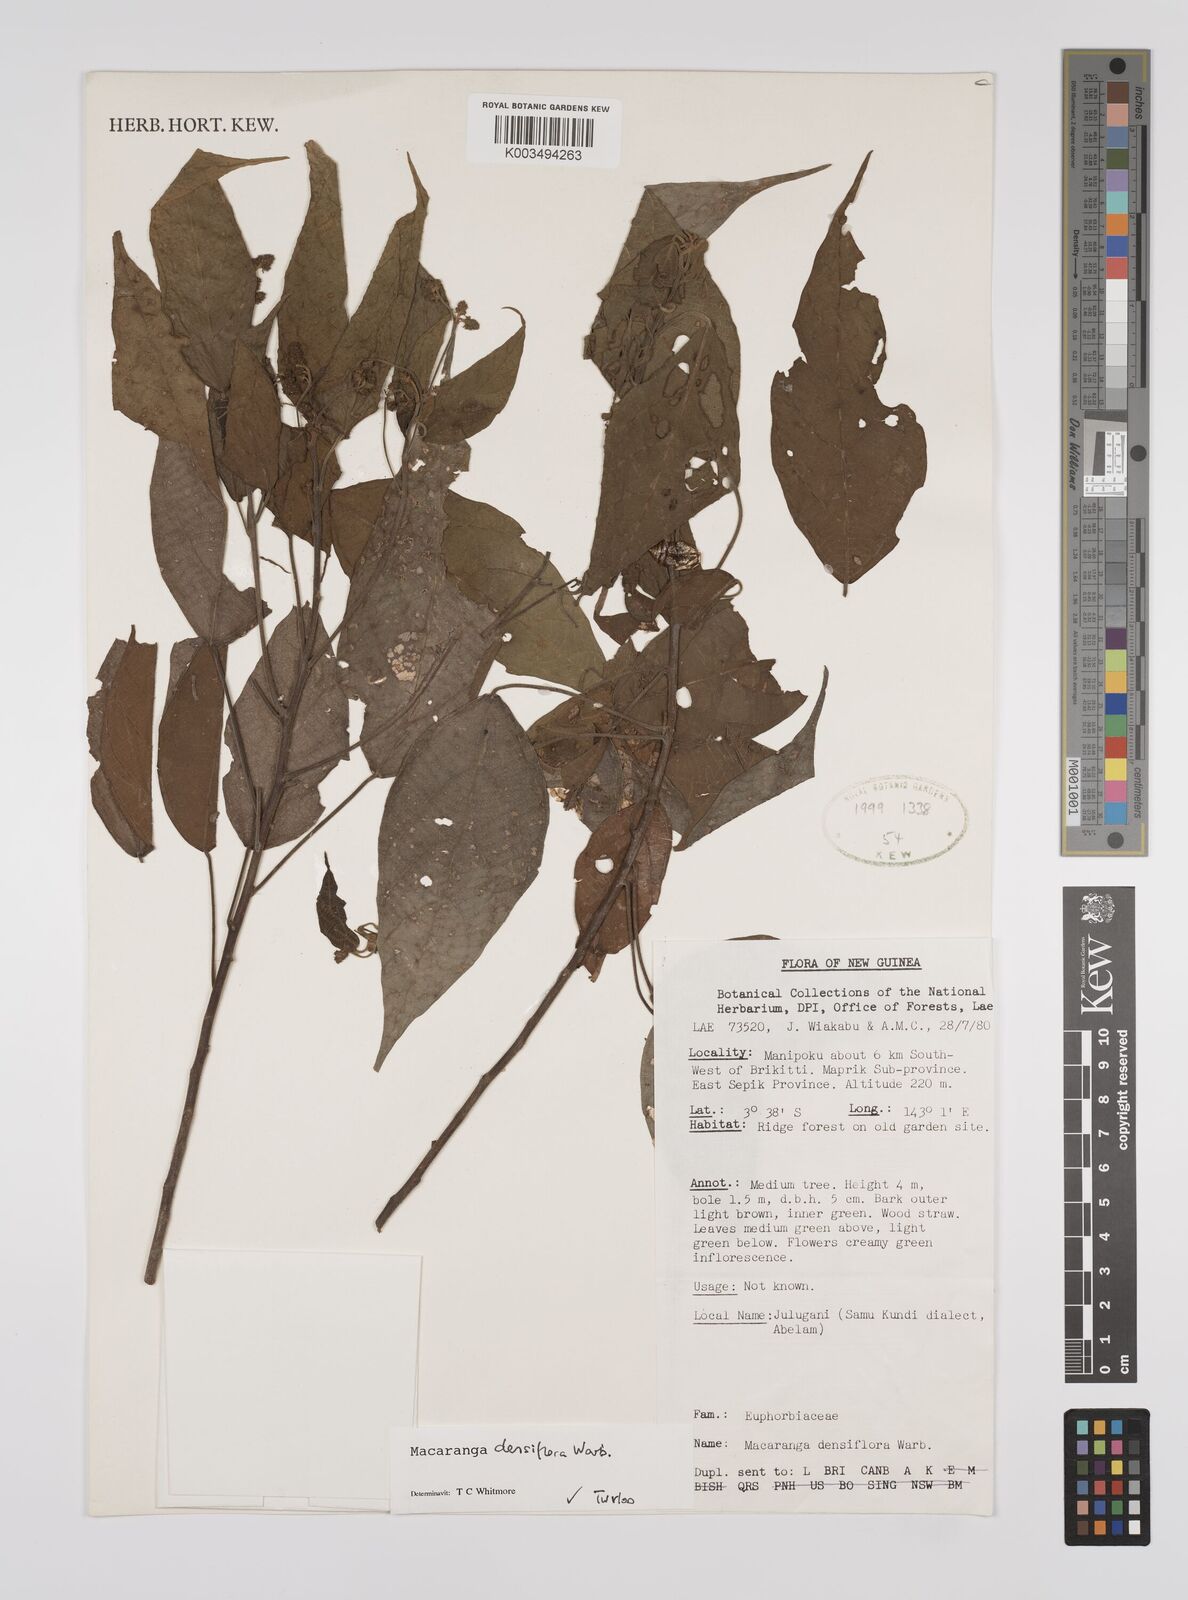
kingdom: Plantae
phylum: Tracheophyta
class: Magnoliopsida
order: Malpighiales
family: Euphorbiaceae
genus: Macaranga
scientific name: Macaranga densiflora
